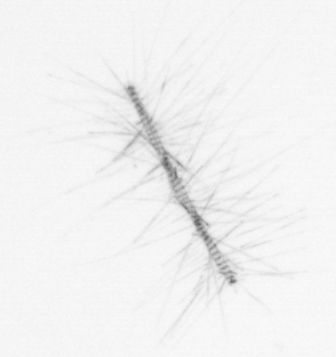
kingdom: Chromista
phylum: Ochrophyta
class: Bacillariophyceae
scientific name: Bacillariophyceae
